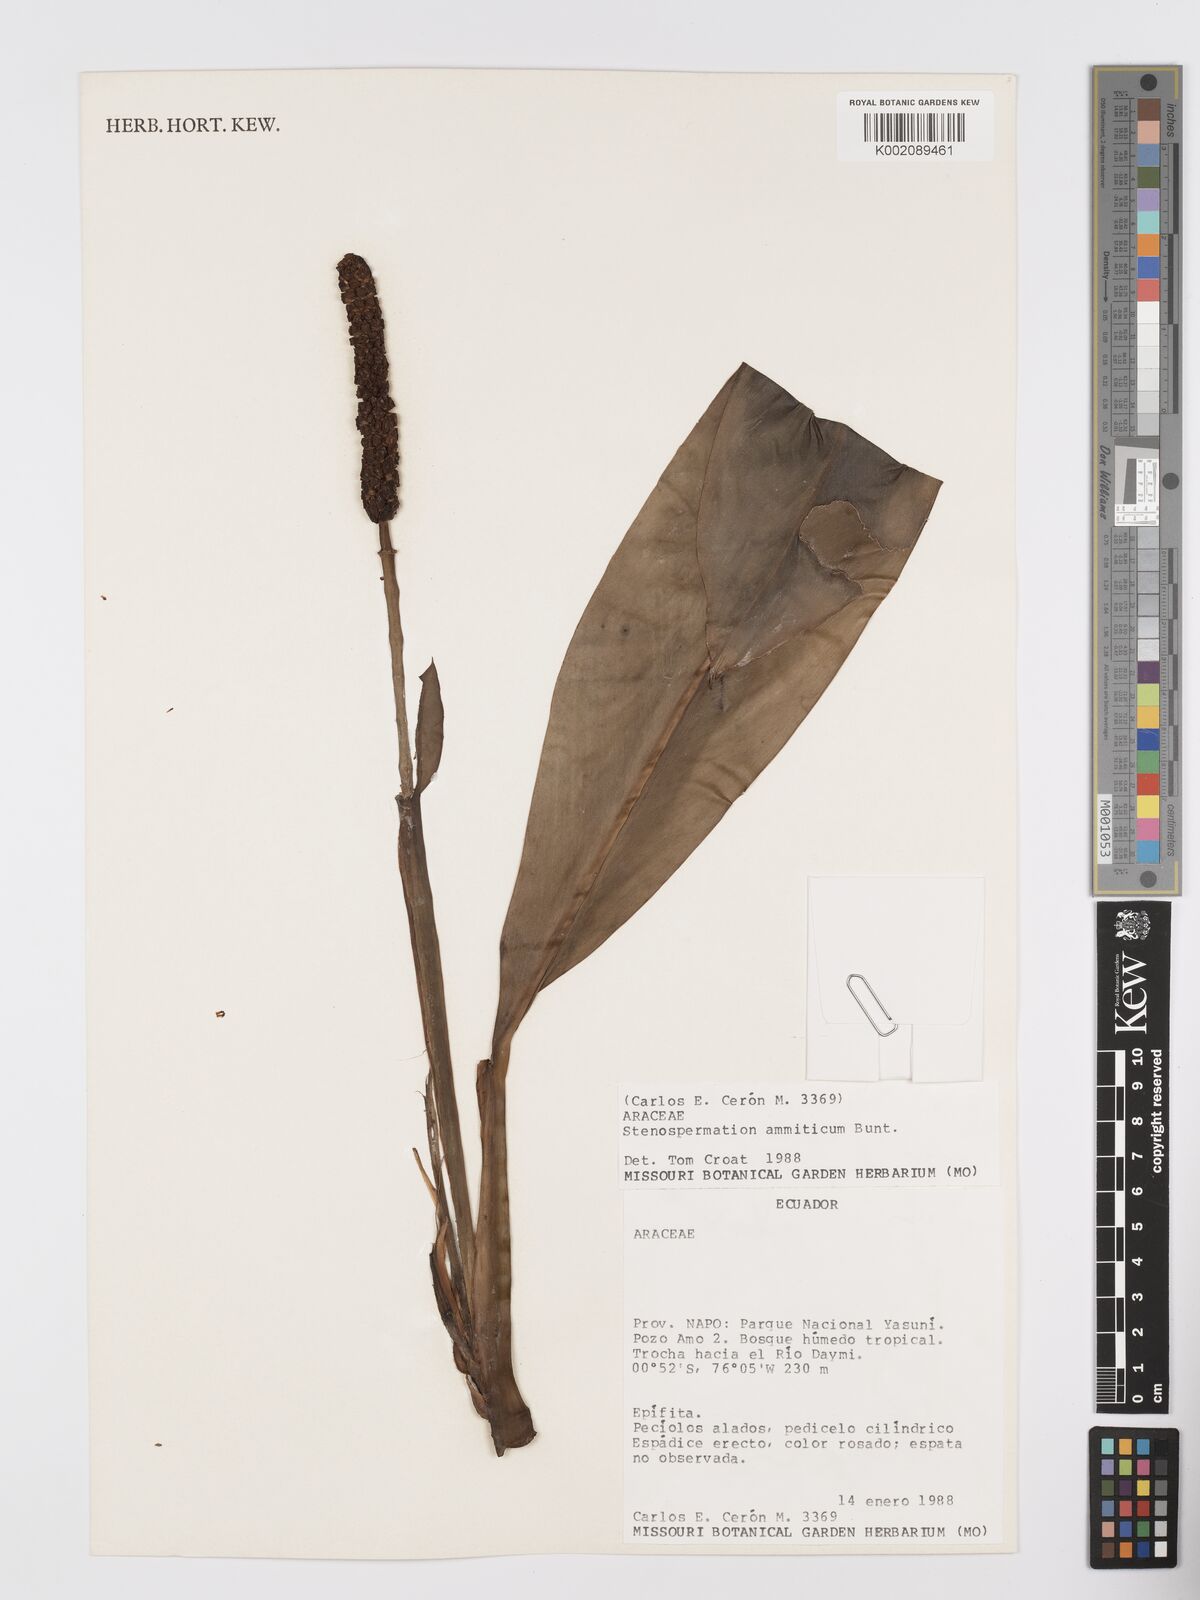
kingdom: Plantae
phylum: Tracheophyta
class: Liliopsida
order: Alismatales
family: Araceae
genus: Stenospermation
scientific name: Stenospermation ammiticum
